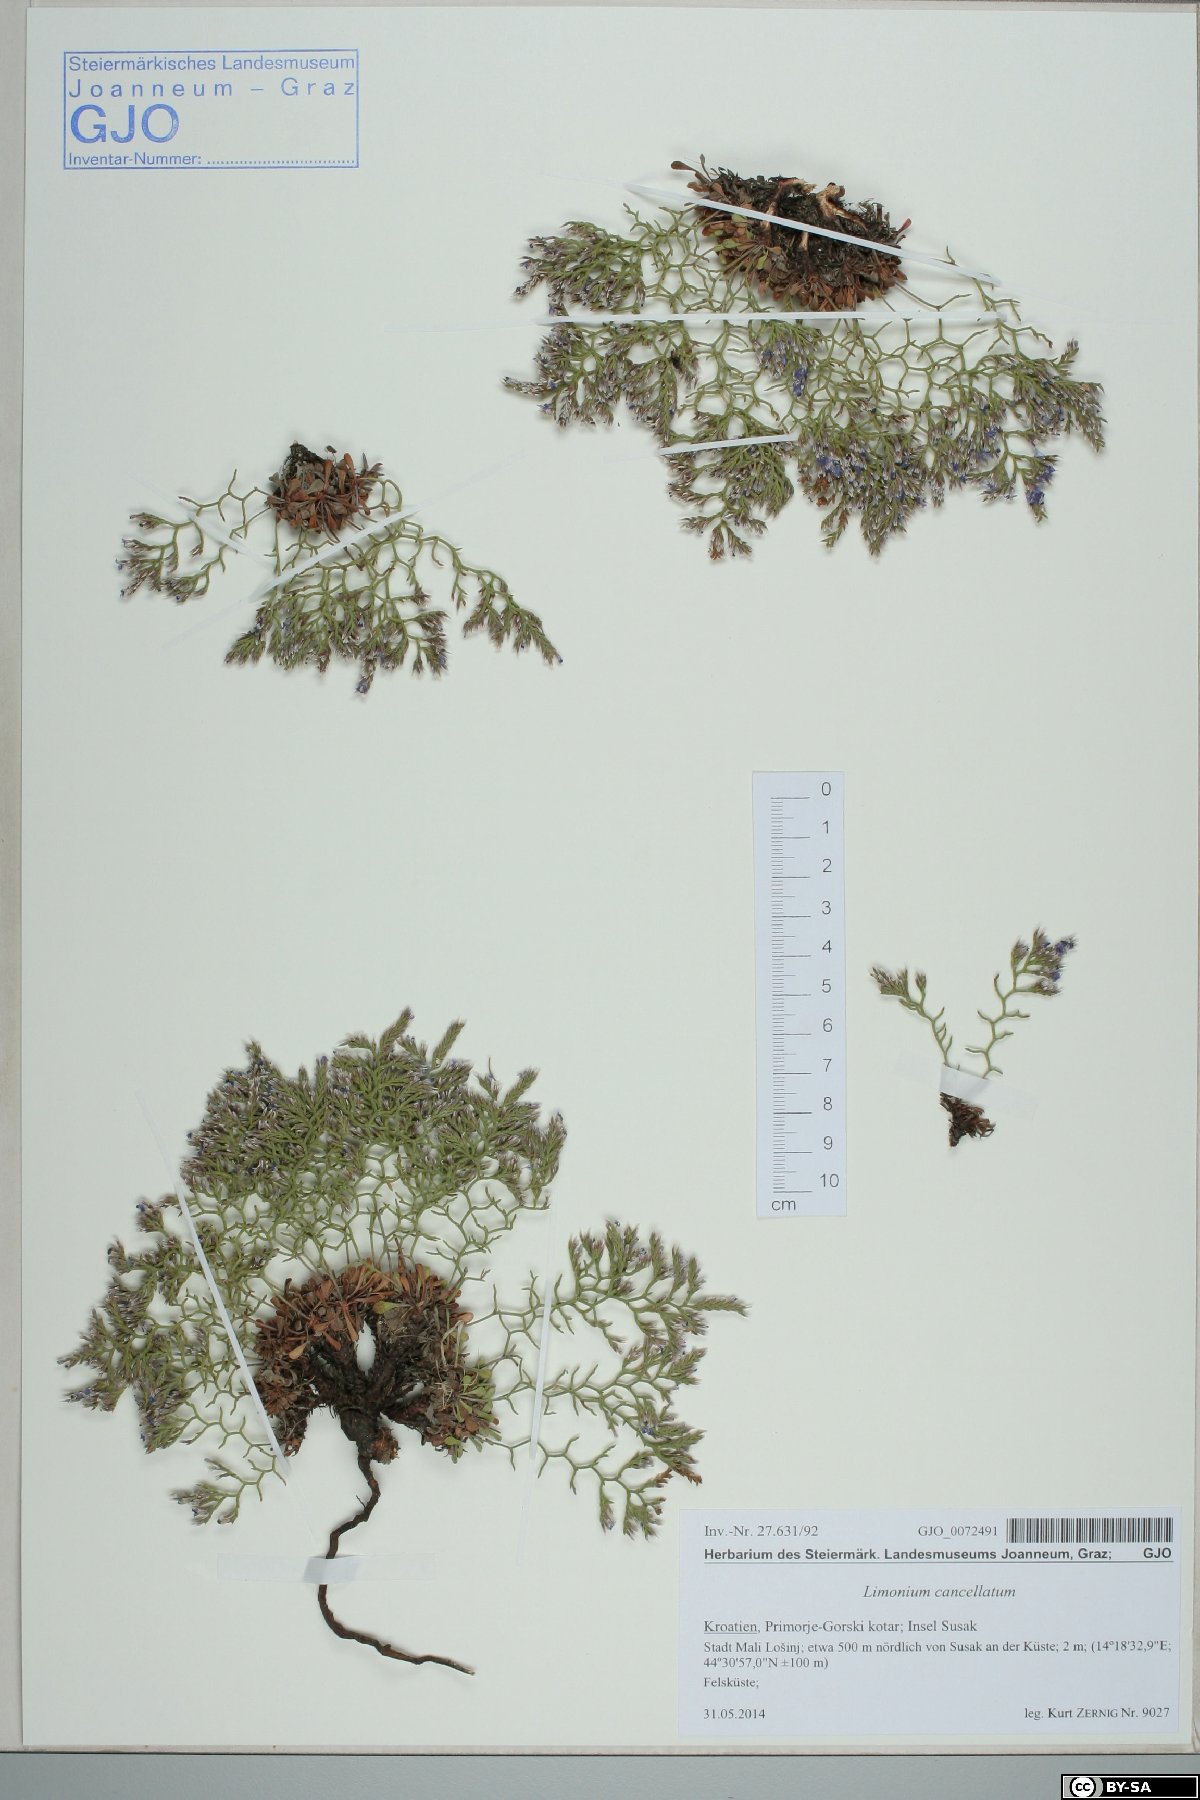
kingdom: Plantae
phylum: Tracheophyta
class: Magnoliopsida
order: Caryophyllales
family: Plumbaginaceae
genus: Limonium
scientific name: Limonium cancellatum
